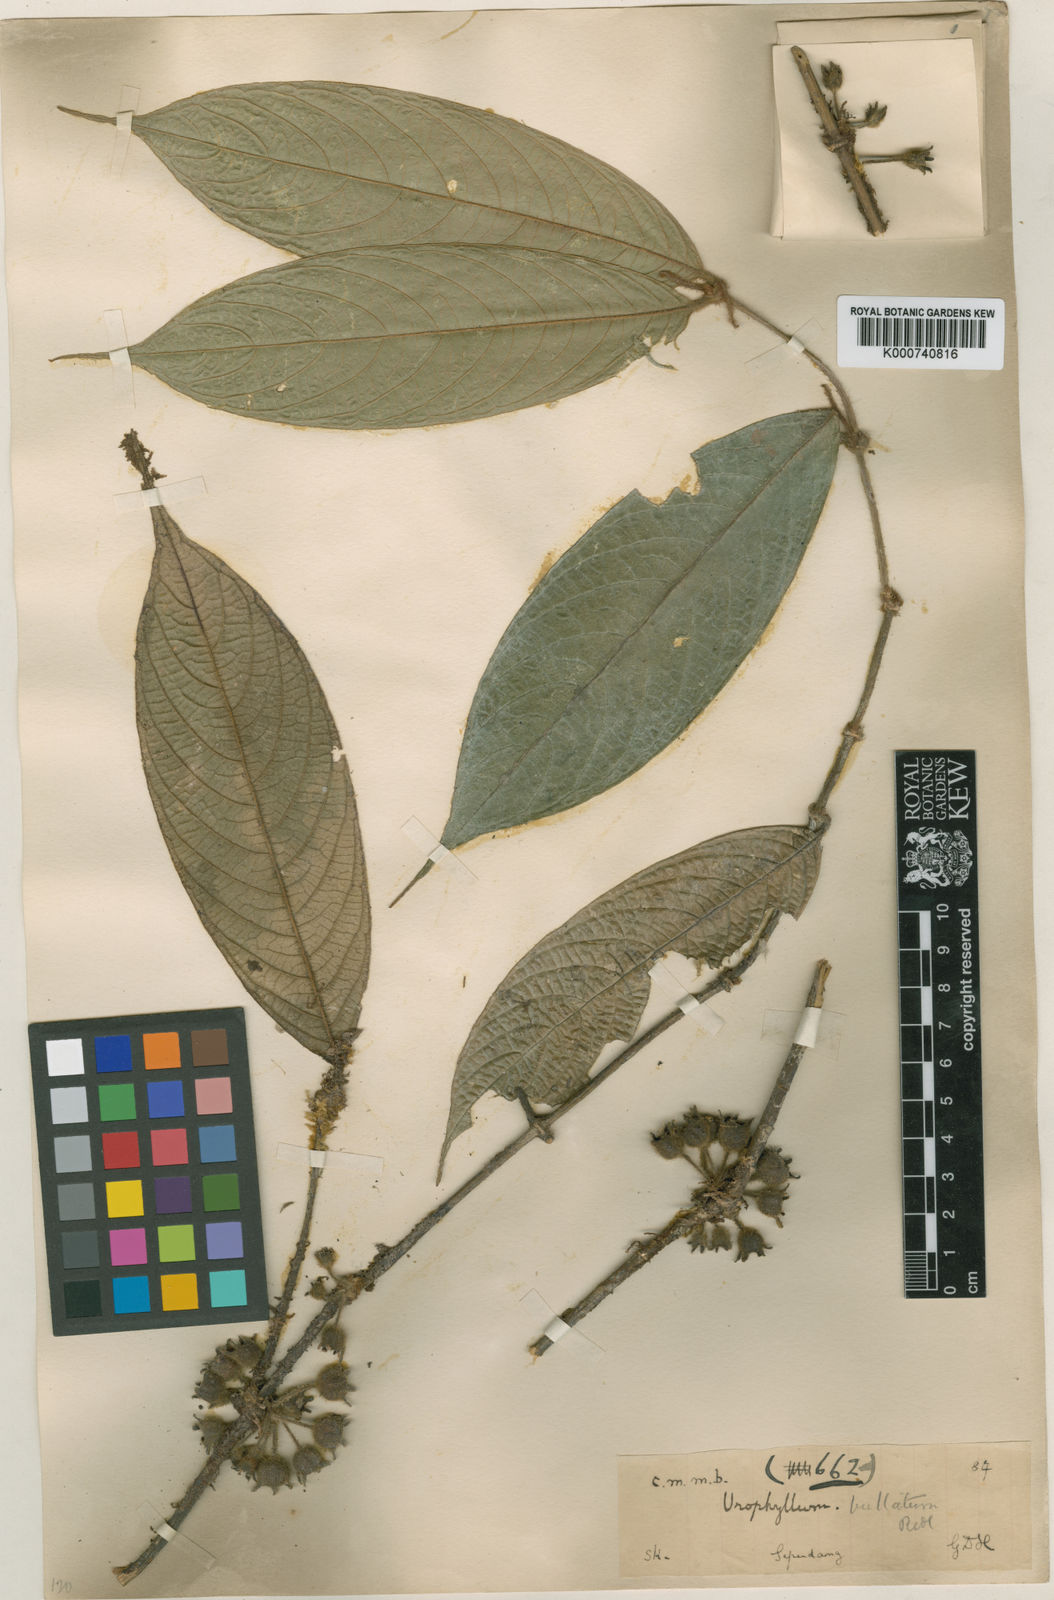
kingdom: Plantae
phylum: Tracheophyta
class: Magnoliopsida
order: Gentianales
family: Rubiaceae
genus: Urophyllum
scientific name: Urophyllum bullatum
